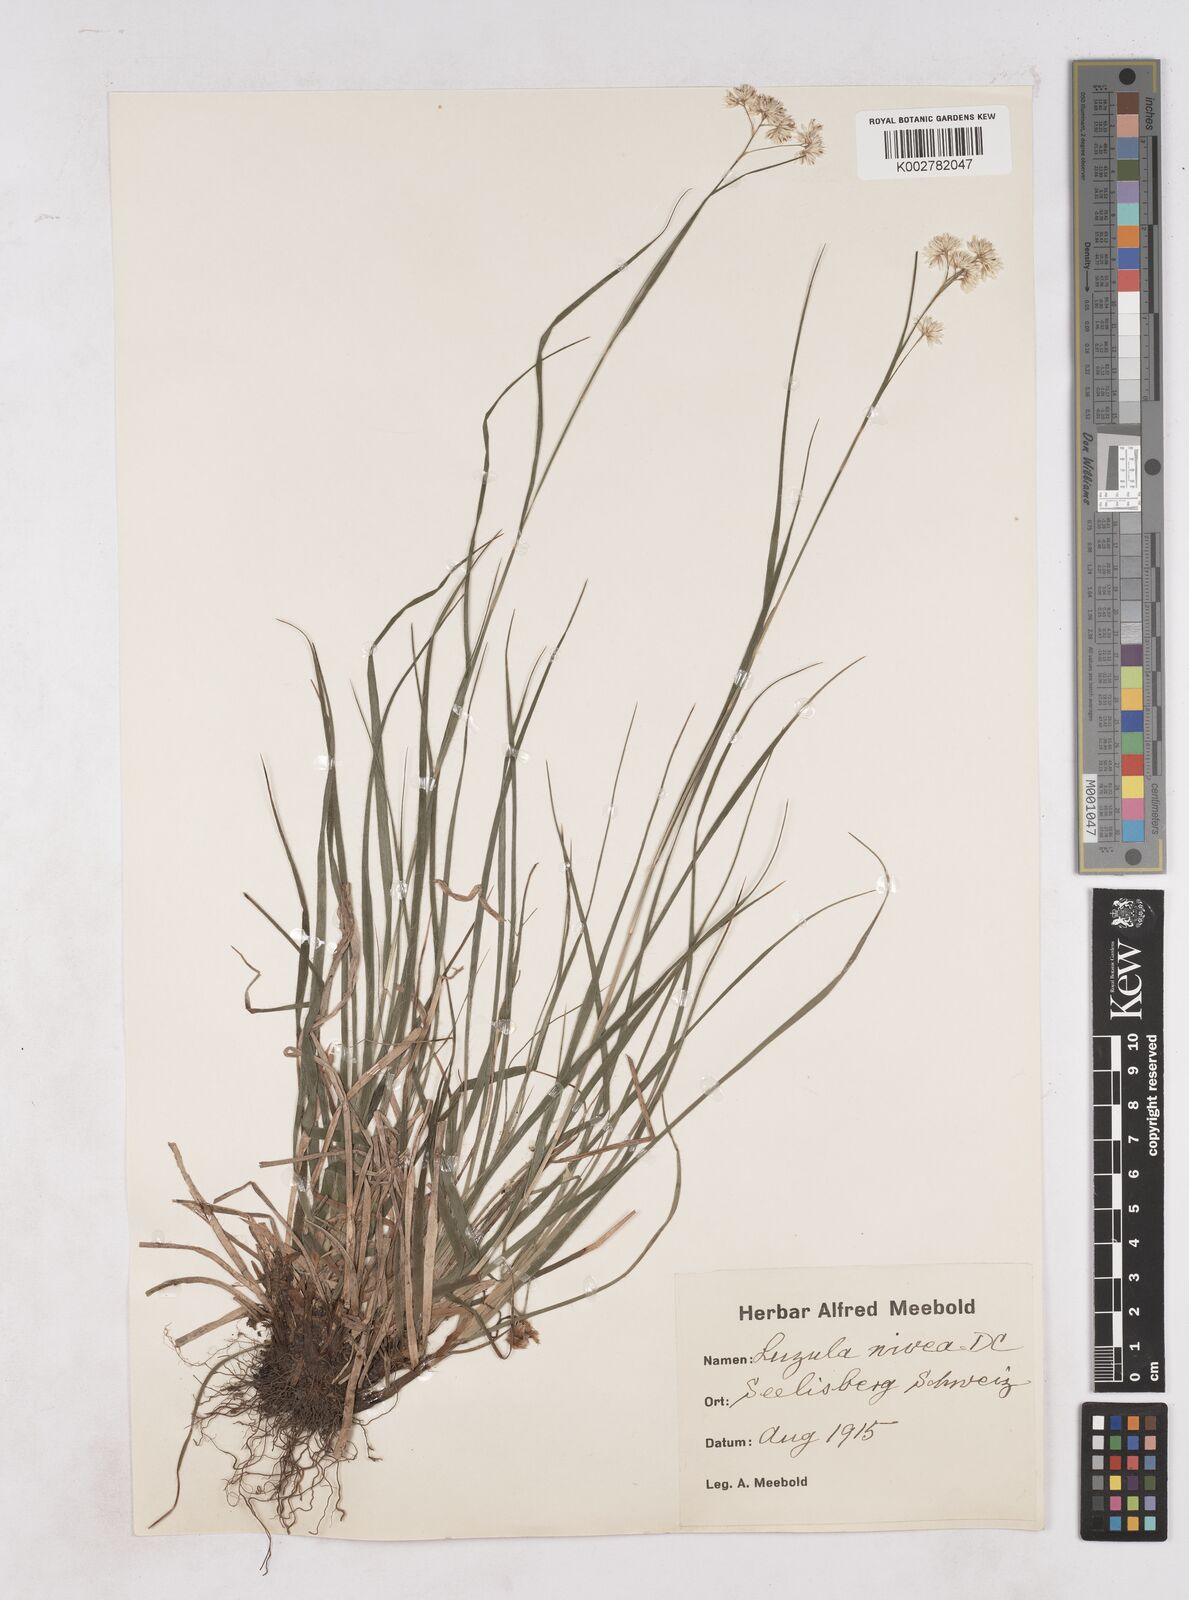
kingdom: Plantae
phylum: Tracheophyta
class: Liliopsida
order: Poales
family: Juncaceae
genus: Luzula
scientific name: Luzula nivea
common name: Snow-white wood-rush
